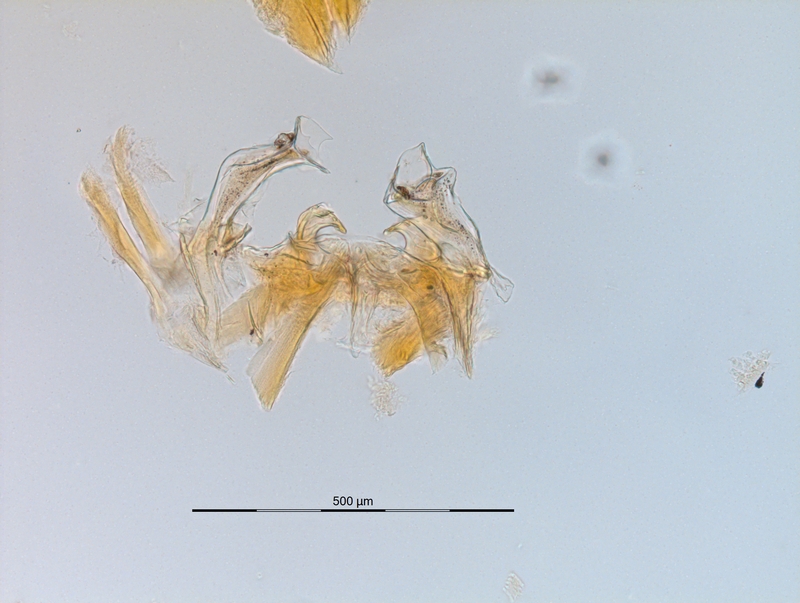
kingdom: Animalia
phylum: Arthropoda
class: Diplopoda
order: Chordeumatida
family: Craspedosomatidae
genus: Carniosoma
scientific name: Carniosoma abietum
